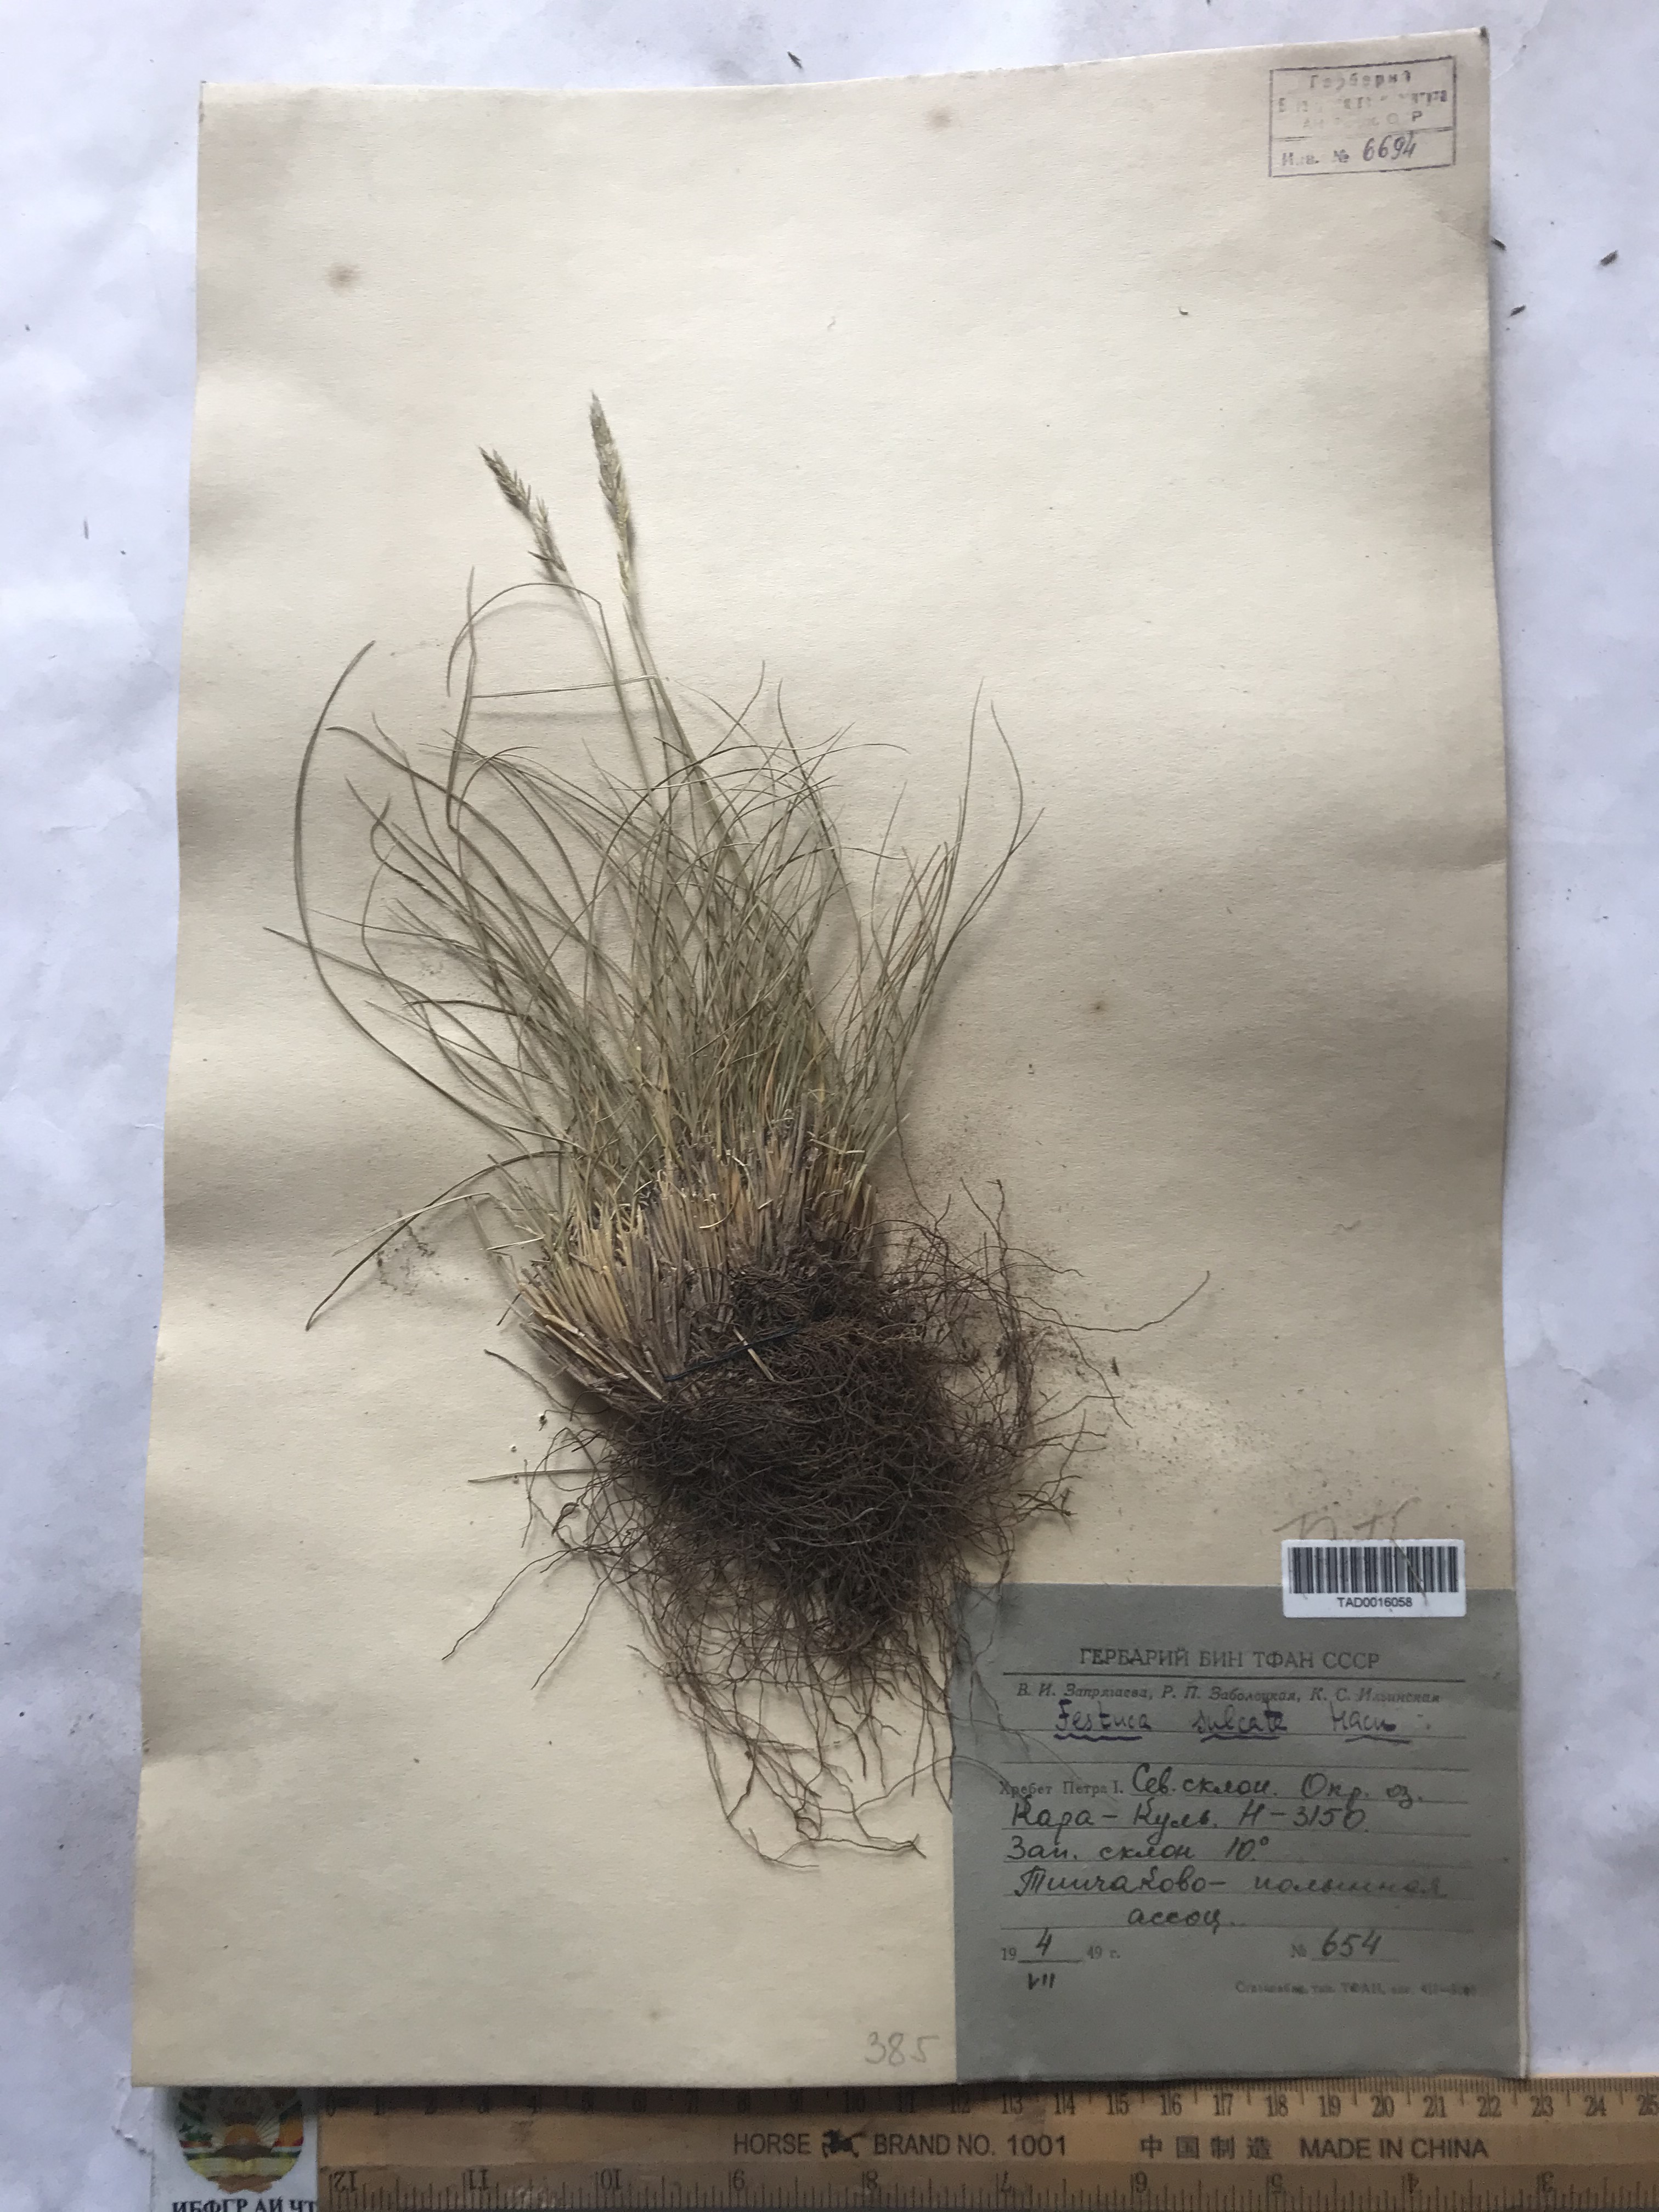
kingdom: Plantae
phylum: Tracheophyta
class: Liliopsida
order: Poales
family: Poaceae
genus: Festuca
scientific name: Festuca sulcata
